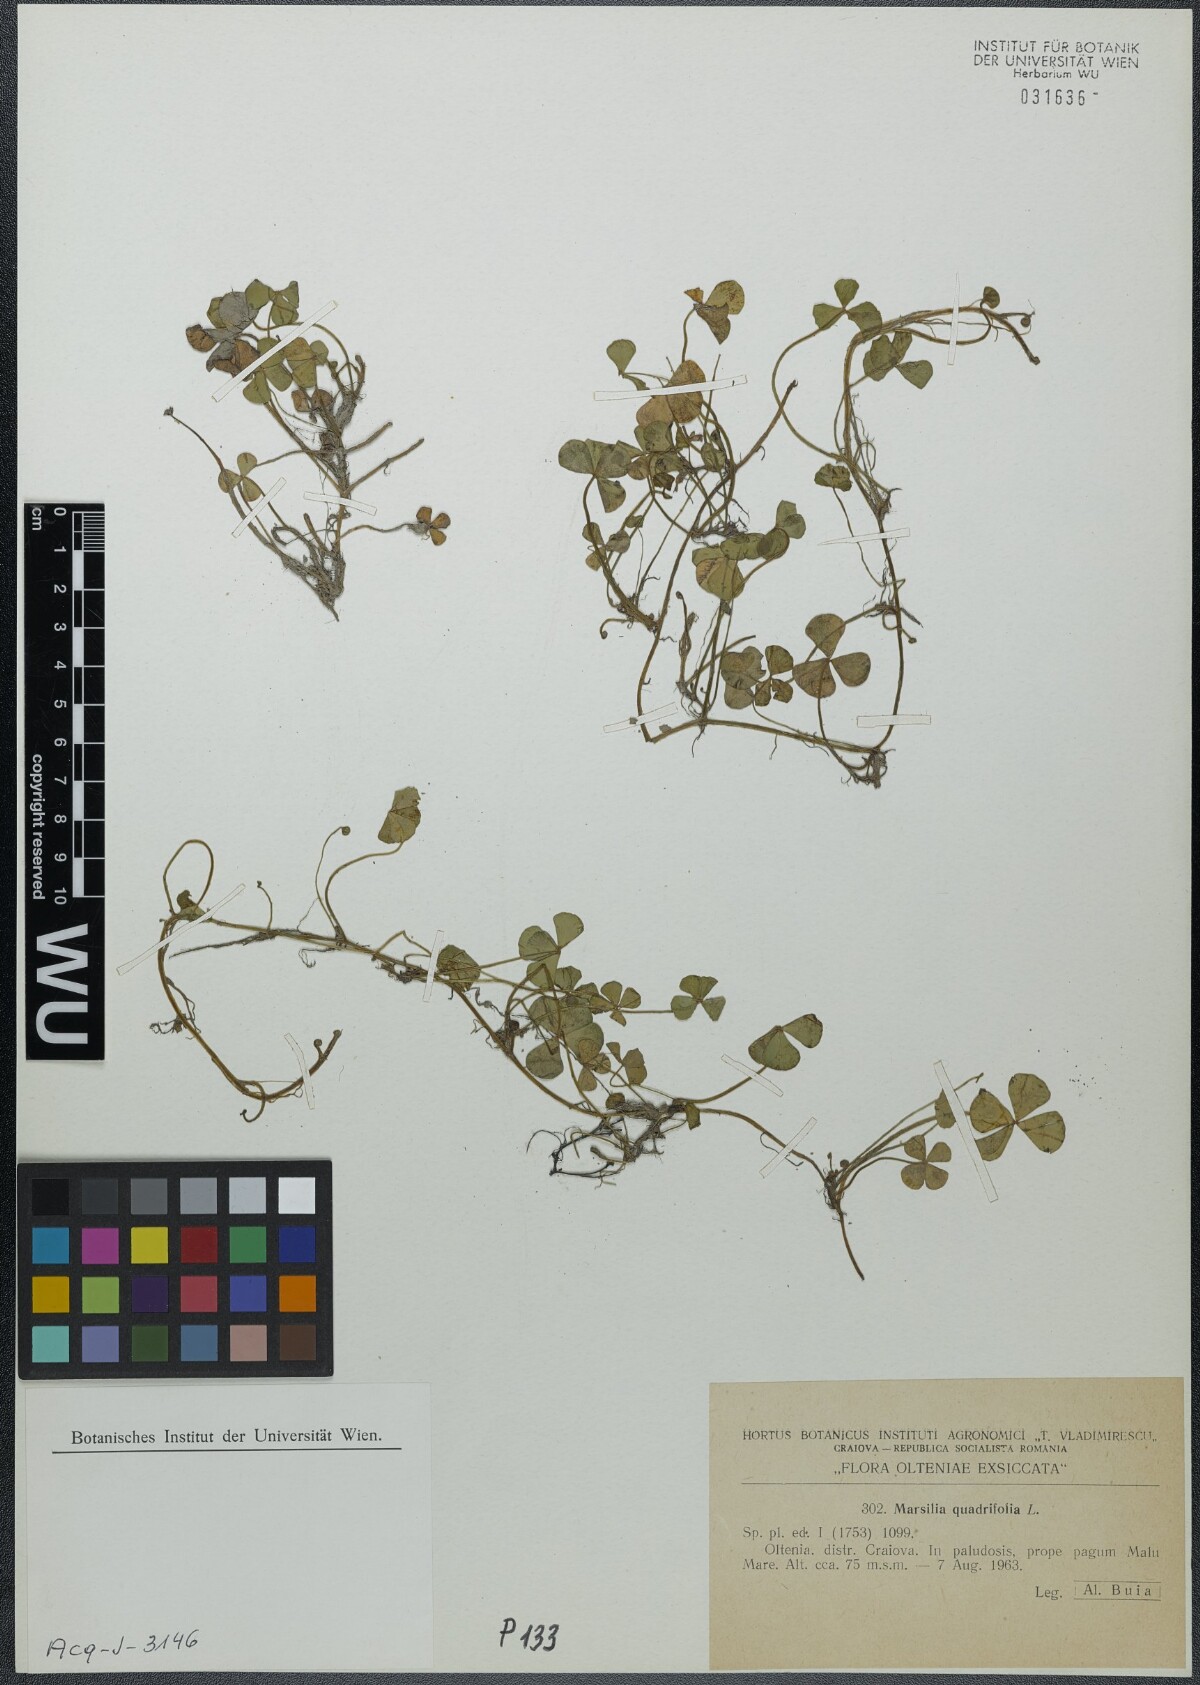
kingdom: Plantae
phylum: Tracheophyta
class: Polypodiopsida
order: Salviniales
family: Marsileaceae
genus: Marsilea
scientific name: Marsilea quadrifolia
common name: Water shamrock
